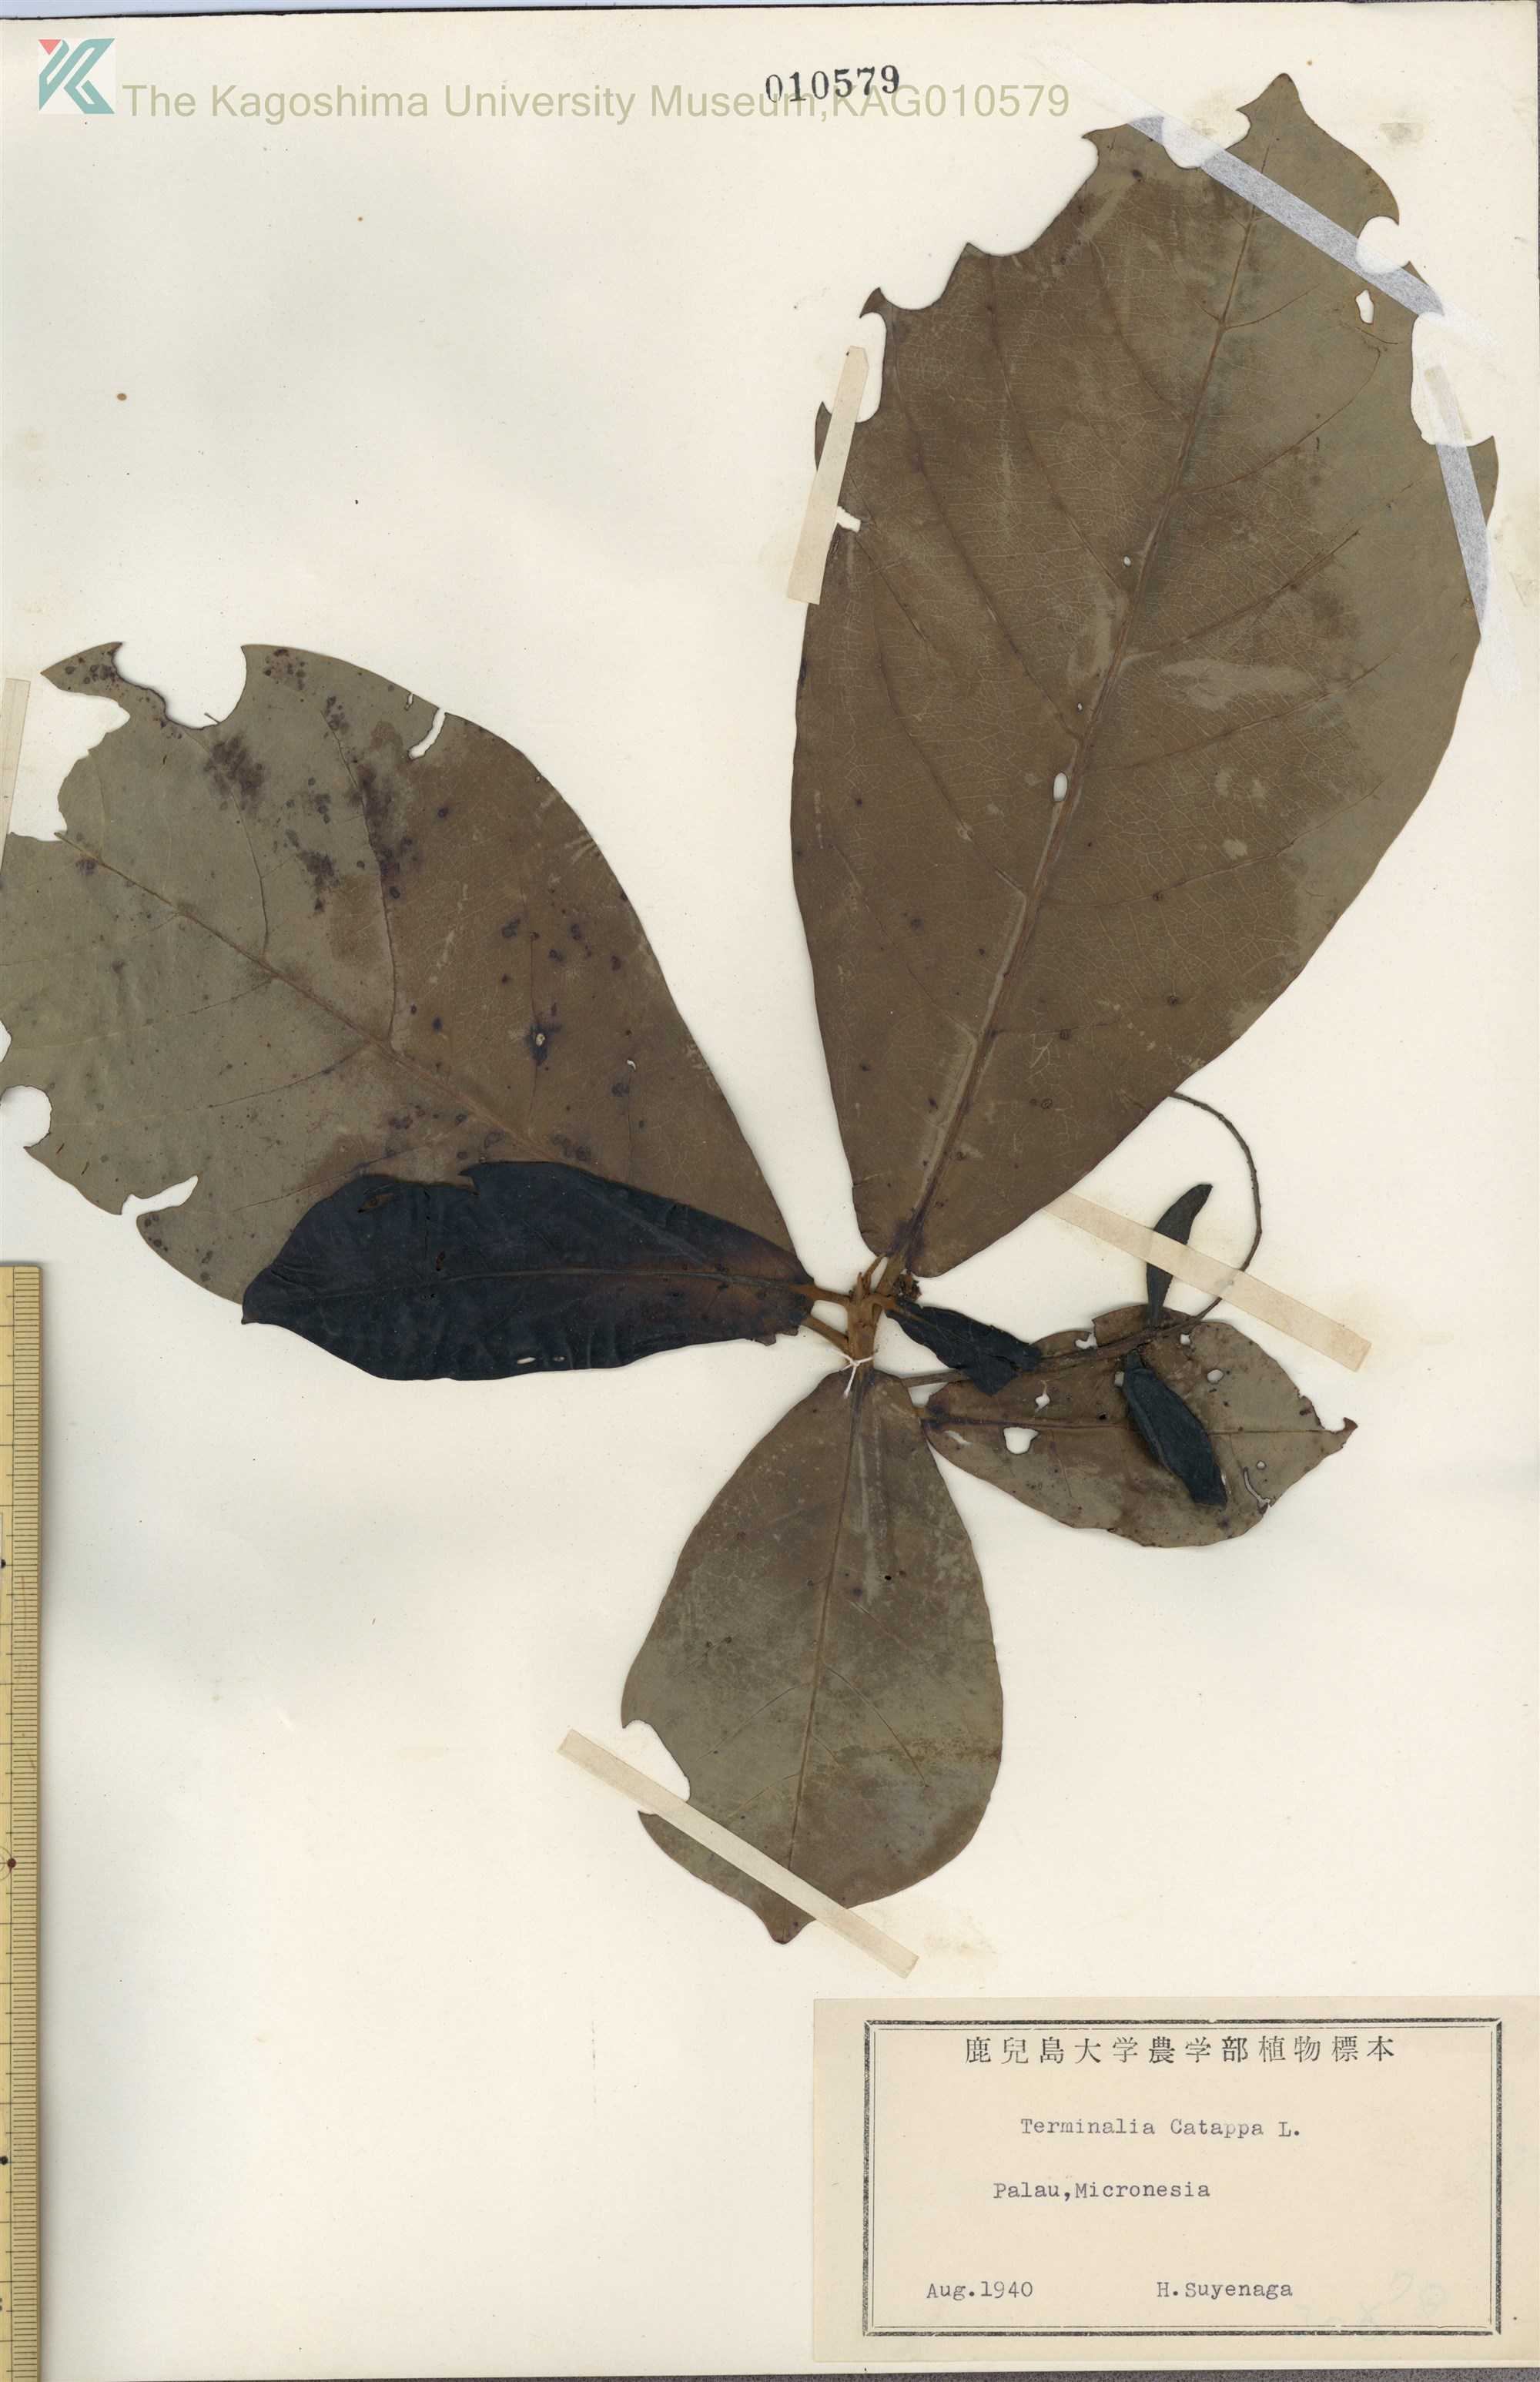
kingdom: Plantae
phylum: Tracheophyta
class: Magnoliopsida
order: Myrtales
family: Combretaceae
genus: Terminalia
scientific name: Terminalia catappa
